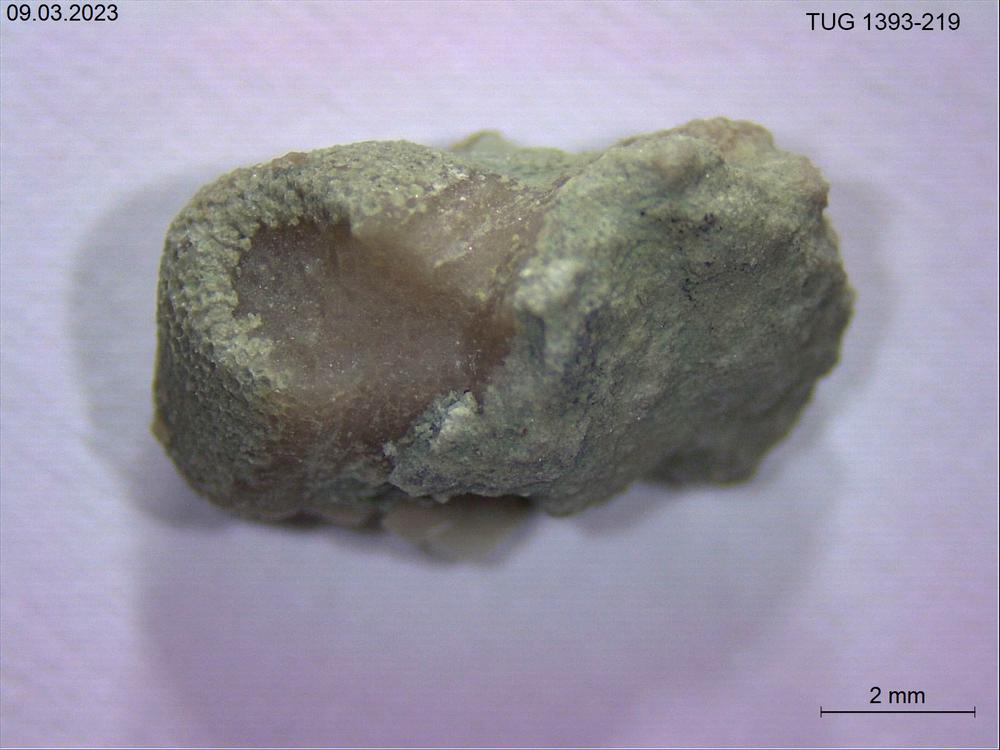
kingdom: Animalia
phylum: Bryozoa
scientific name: Bryozoa
